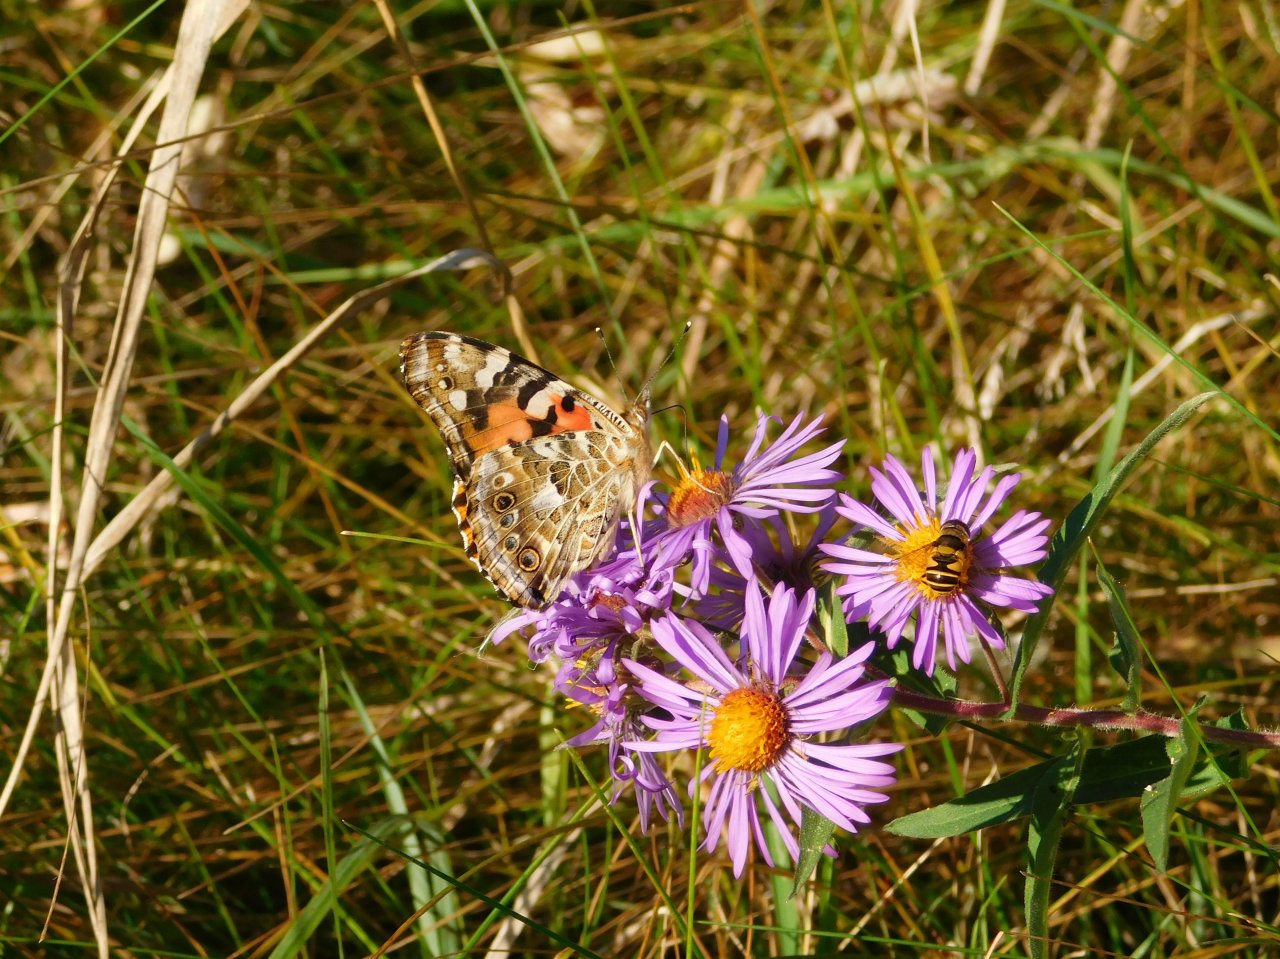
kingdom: Animalia
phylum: Arthropoda
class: Insecta
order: Lepidoptera
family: Nymphalidae
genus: Vanessa
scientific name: Vanessa cardui
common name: Painted Lady
